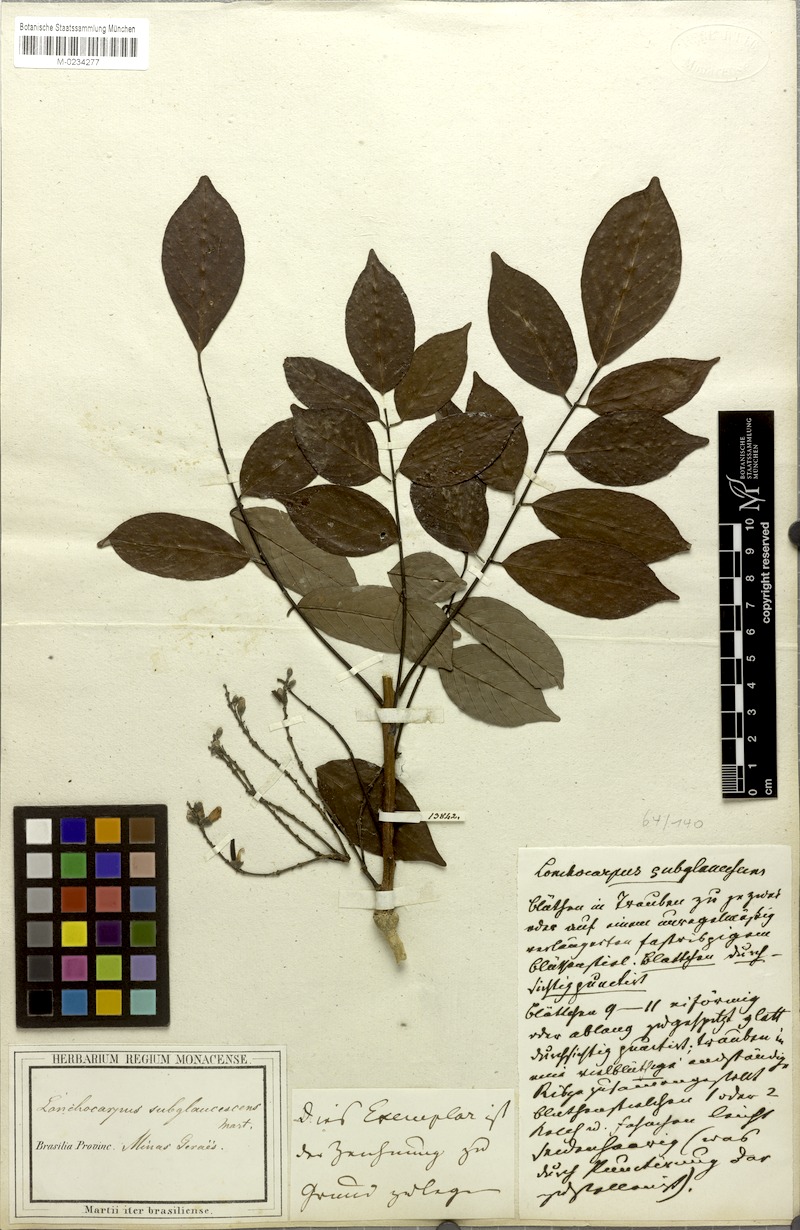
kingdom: Plantae
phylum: Tracheophyta
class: Magnoliopsida
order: Fabales
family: Fabaceae
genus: Lonchocarpus
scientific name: Lonchocarpus subglaucescens
